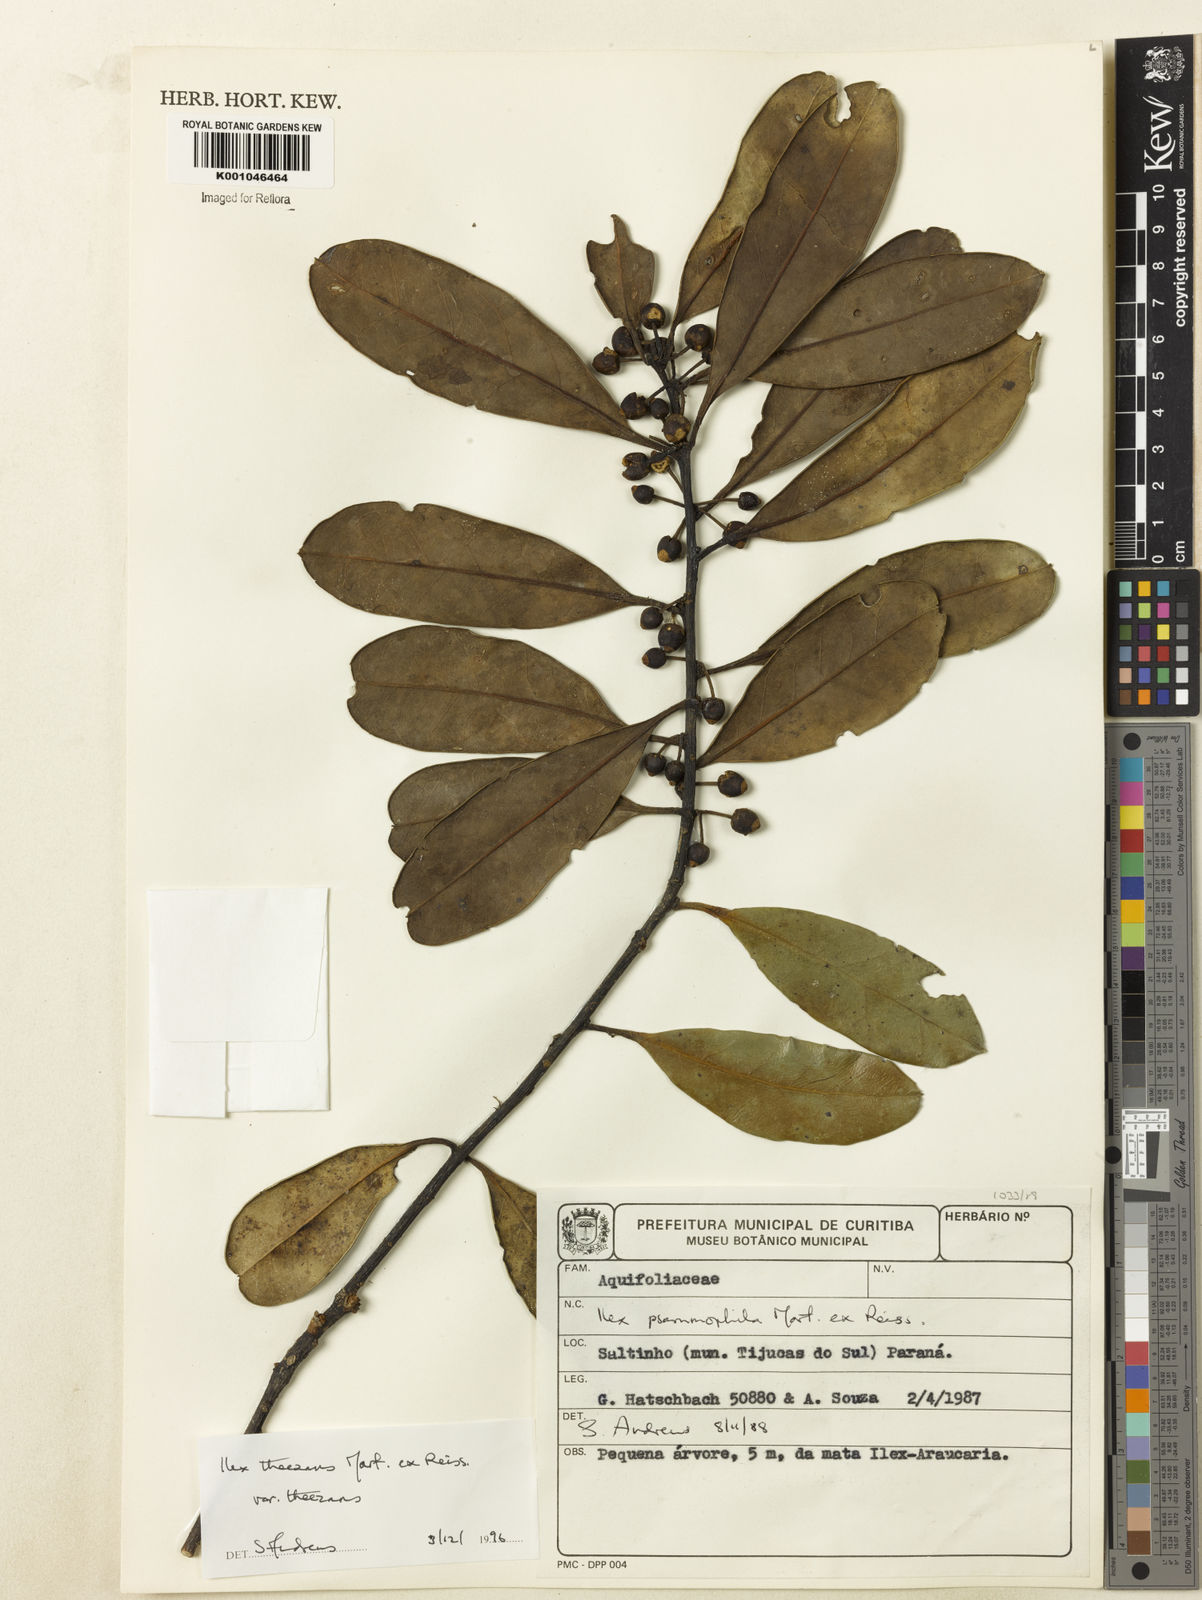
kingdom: Plantae
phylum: Tracheophyta
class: Magnoliopsida
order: Aquifoliales
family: Aquifoliaceae
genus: Ilex
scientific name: Ilex paraguariensis
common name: Paraguay tea
